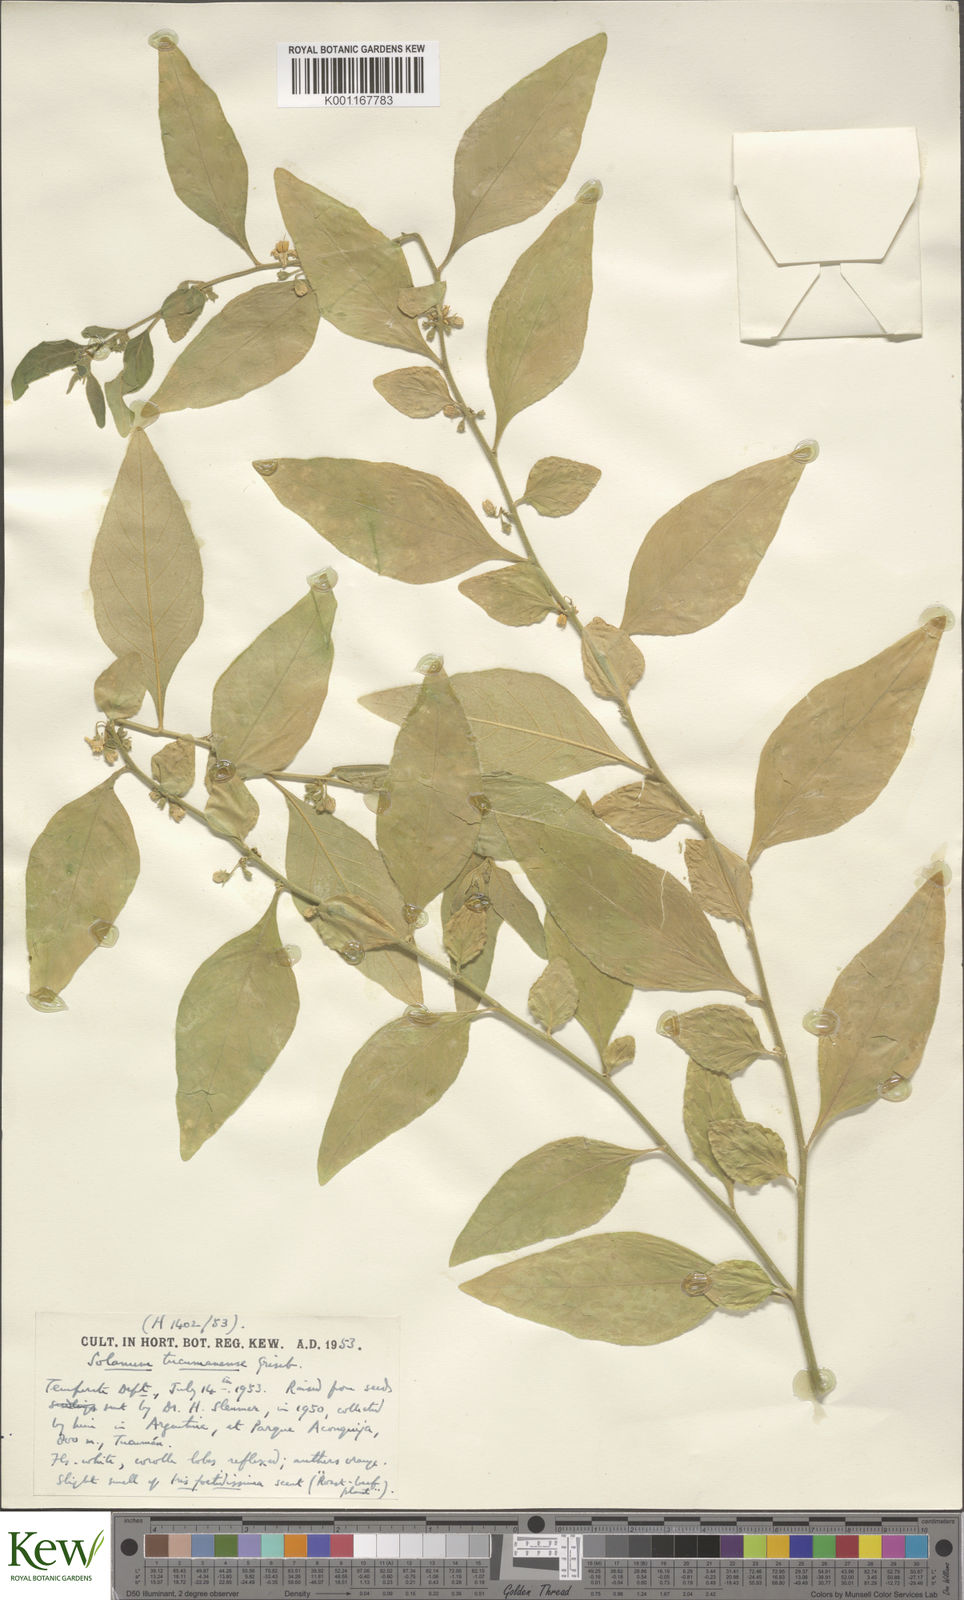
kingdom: Plantae
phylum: Tracheophyta
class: Magnoliopsida
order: Solanales
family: Solanaceae
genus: Solanum
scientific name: Solanum pseudocapsicum
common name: Jerusalem cherry
